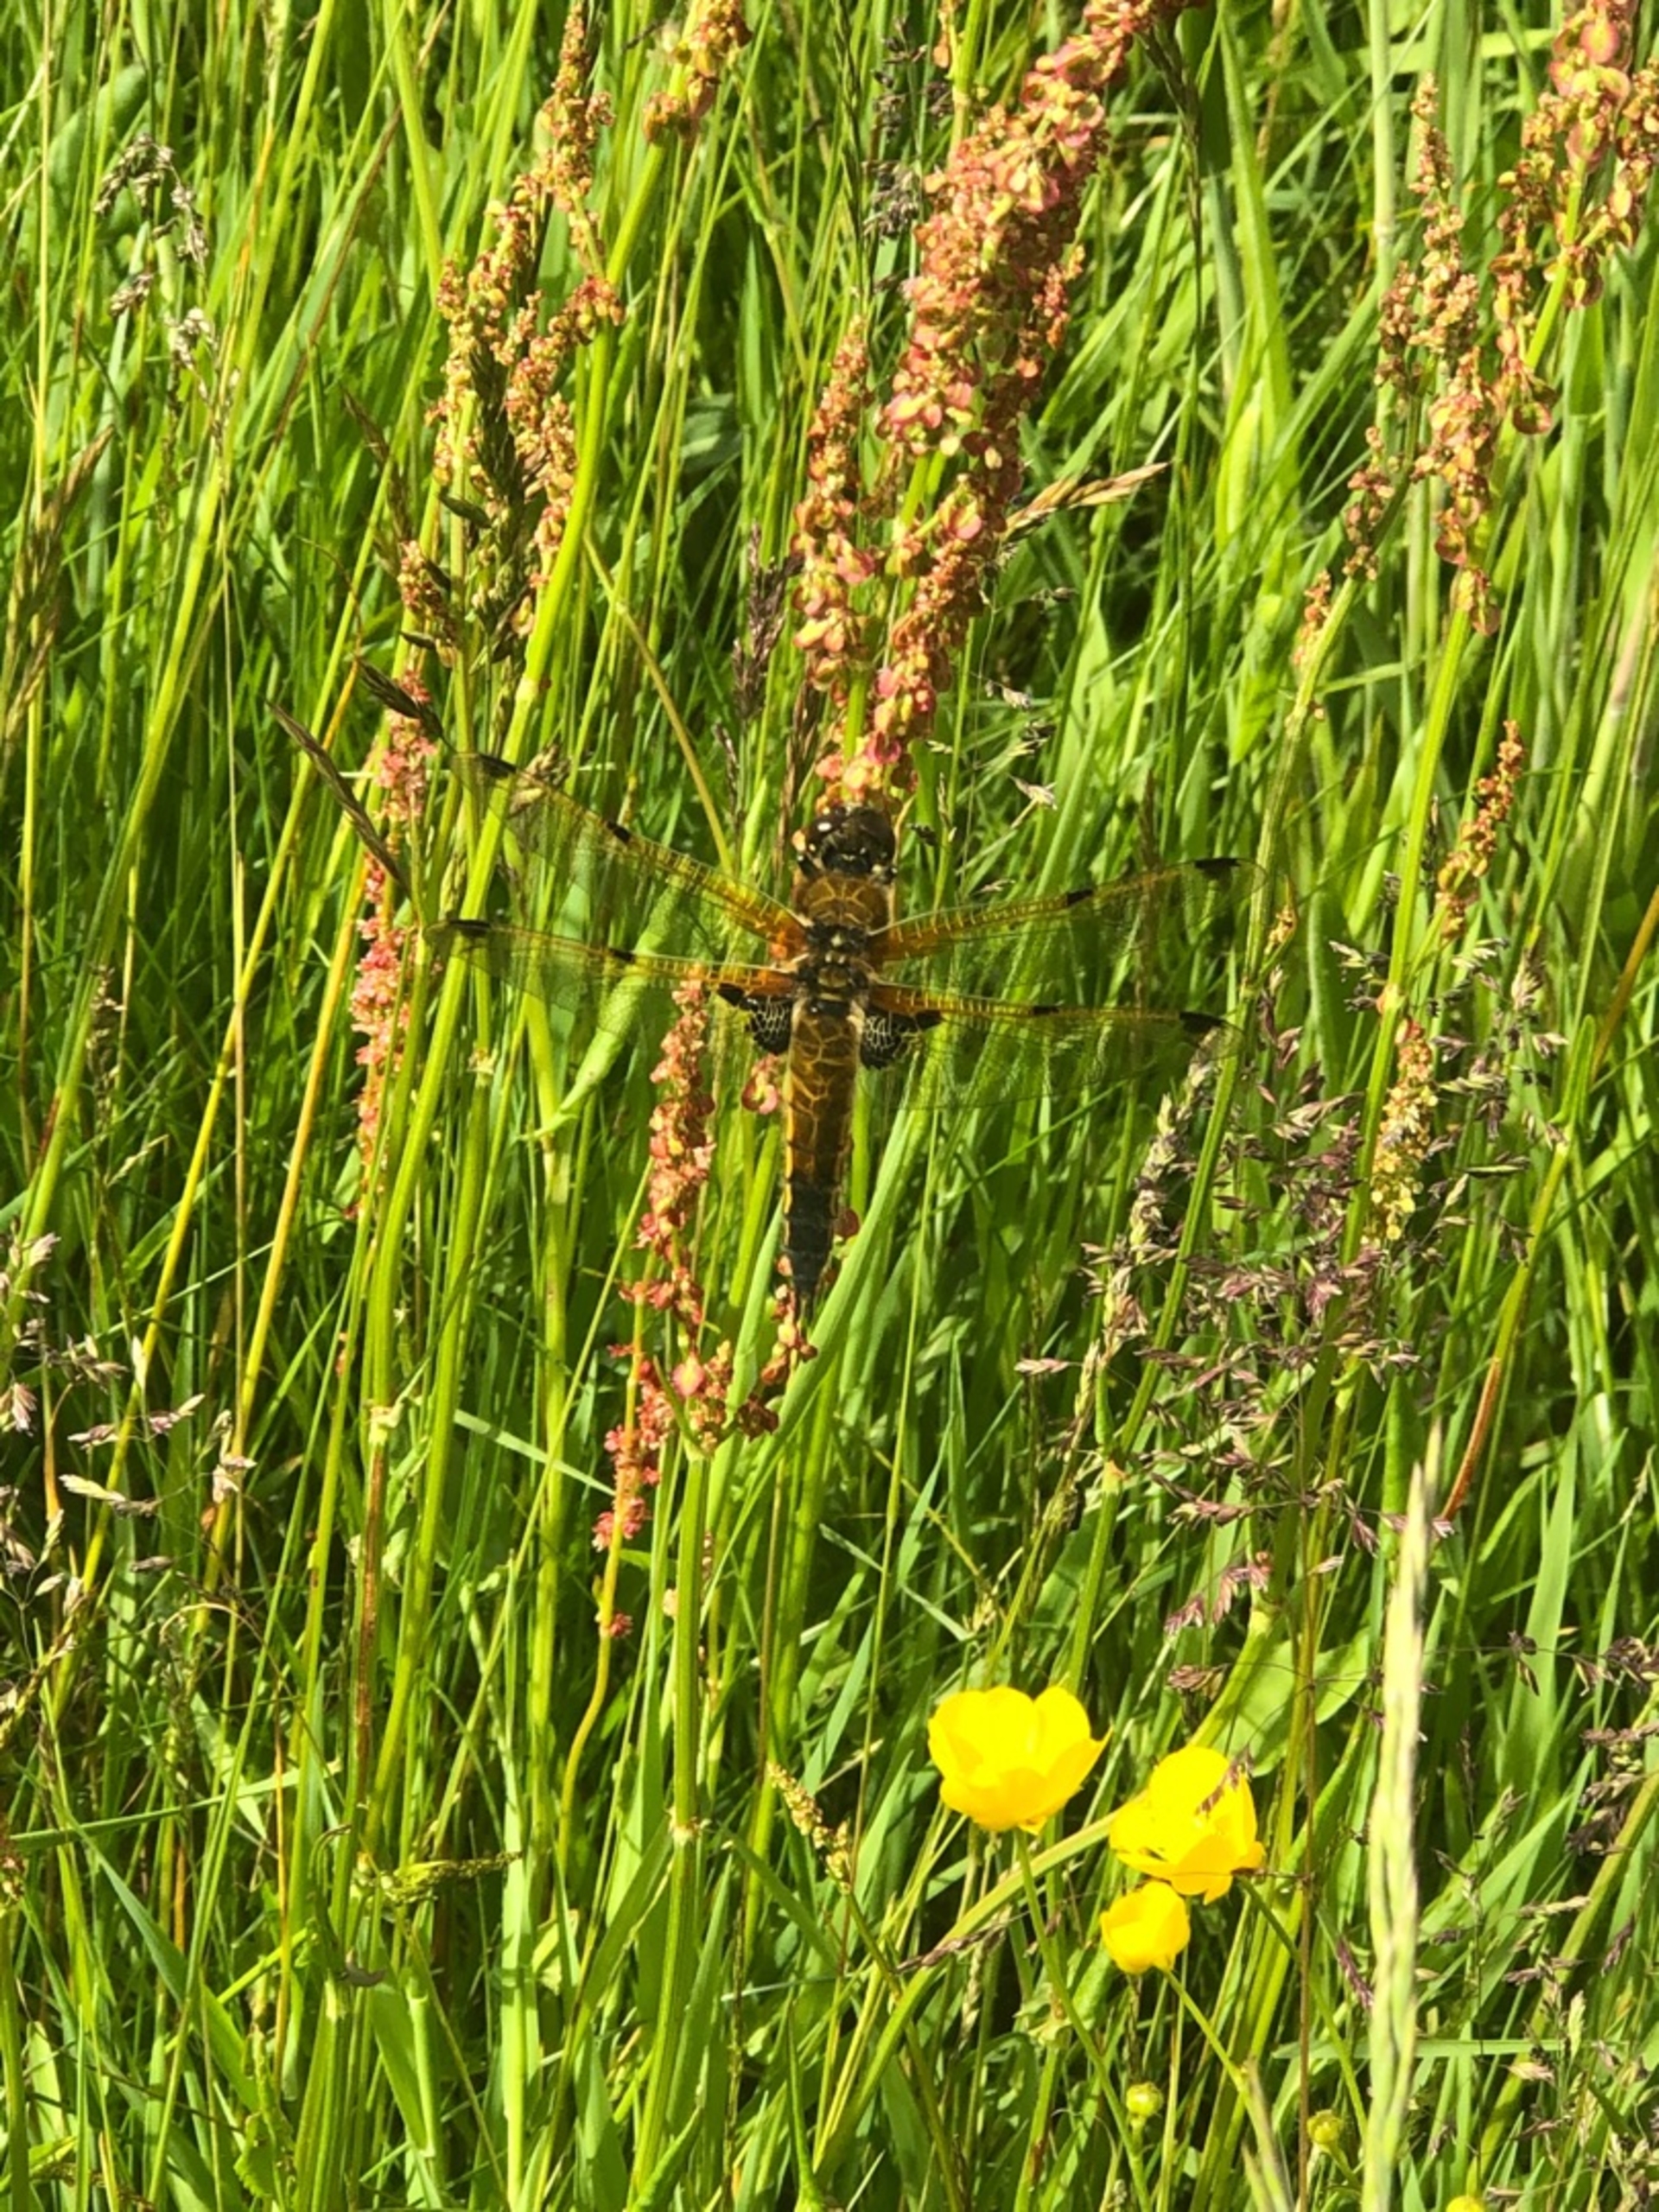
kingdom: Animalia
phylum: Arthropoda
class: Insecta
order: Odonata
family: Libellulidae
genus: Libellula
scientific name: Libellula quadrimaculata
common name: Fireplettet libel
